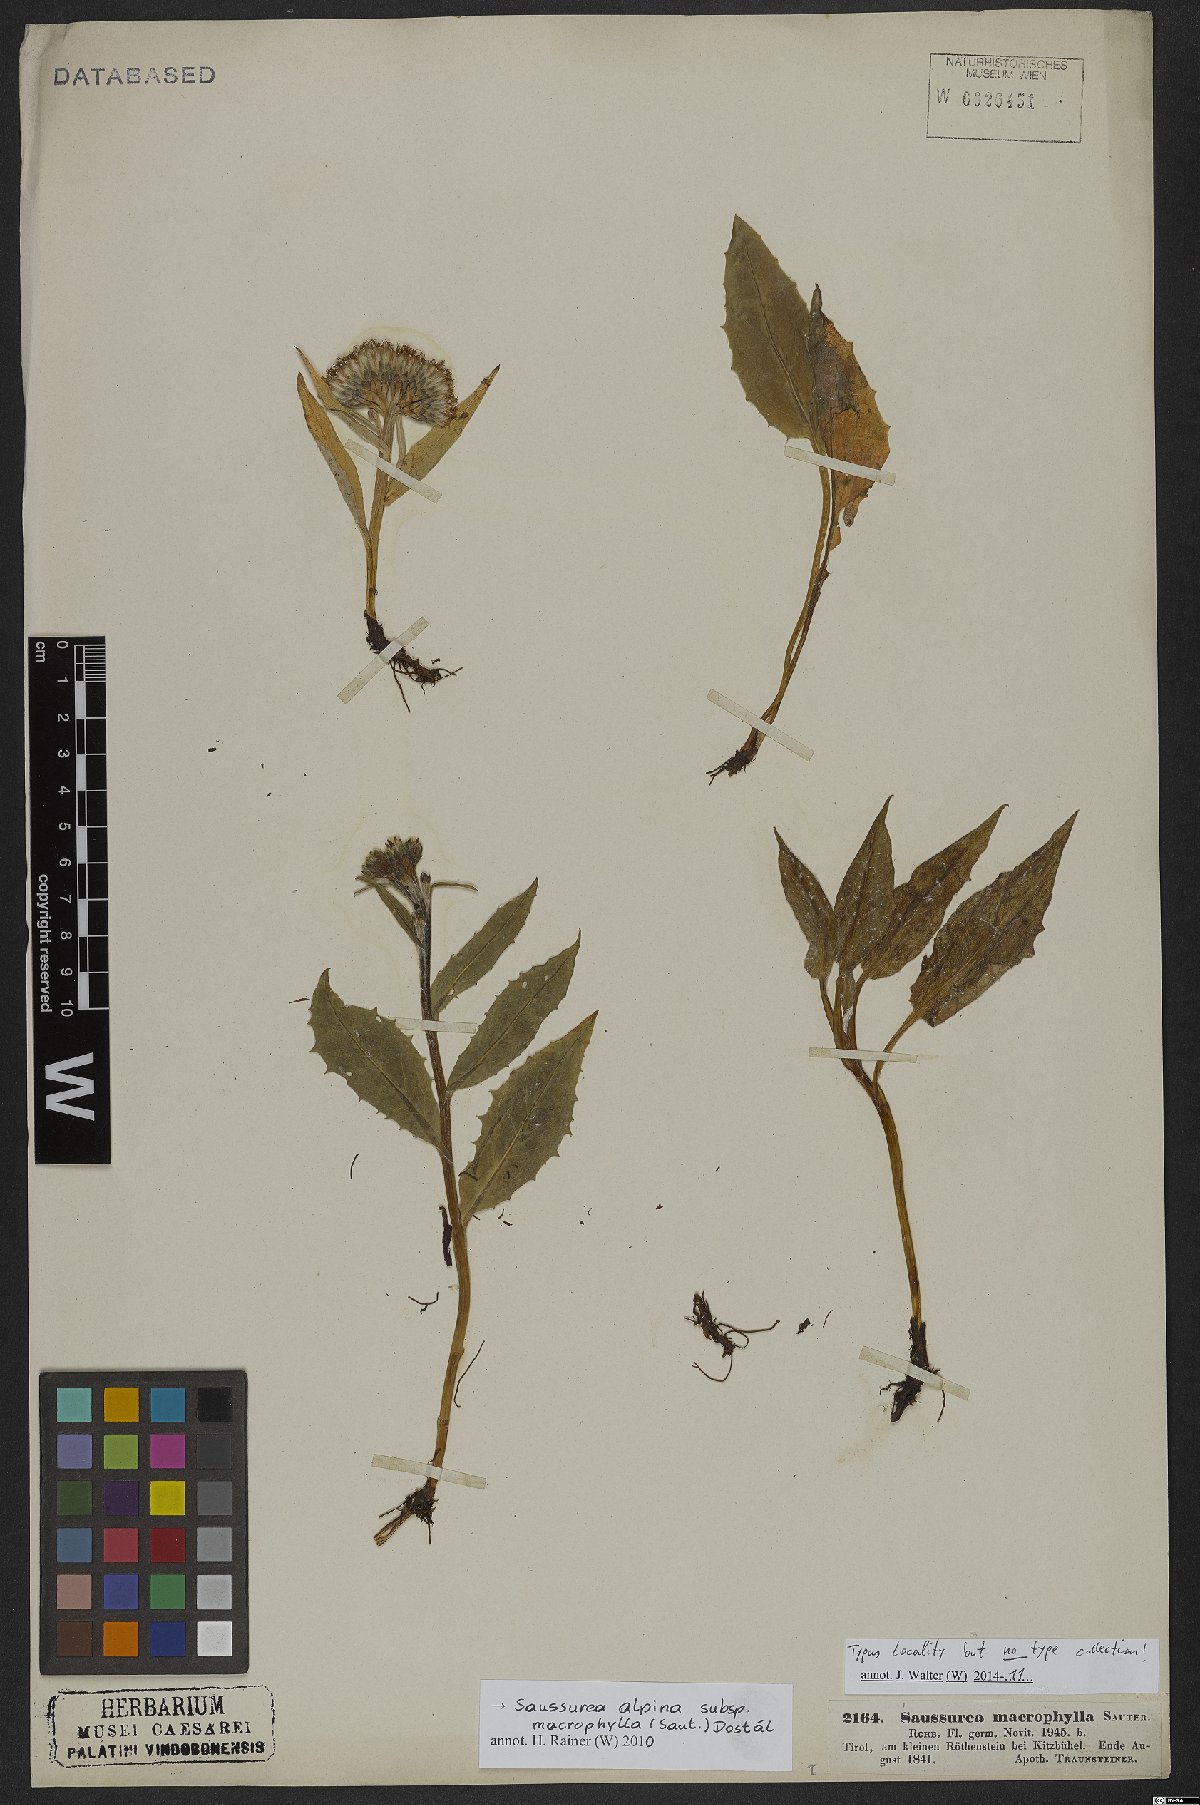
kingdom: Plantae
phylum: Tracheophyta
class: Magnoliopsida
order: Asterales
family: Asteraceae
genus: Saussurea
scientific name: Saussurea alpina
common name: Alpine saw-wort
